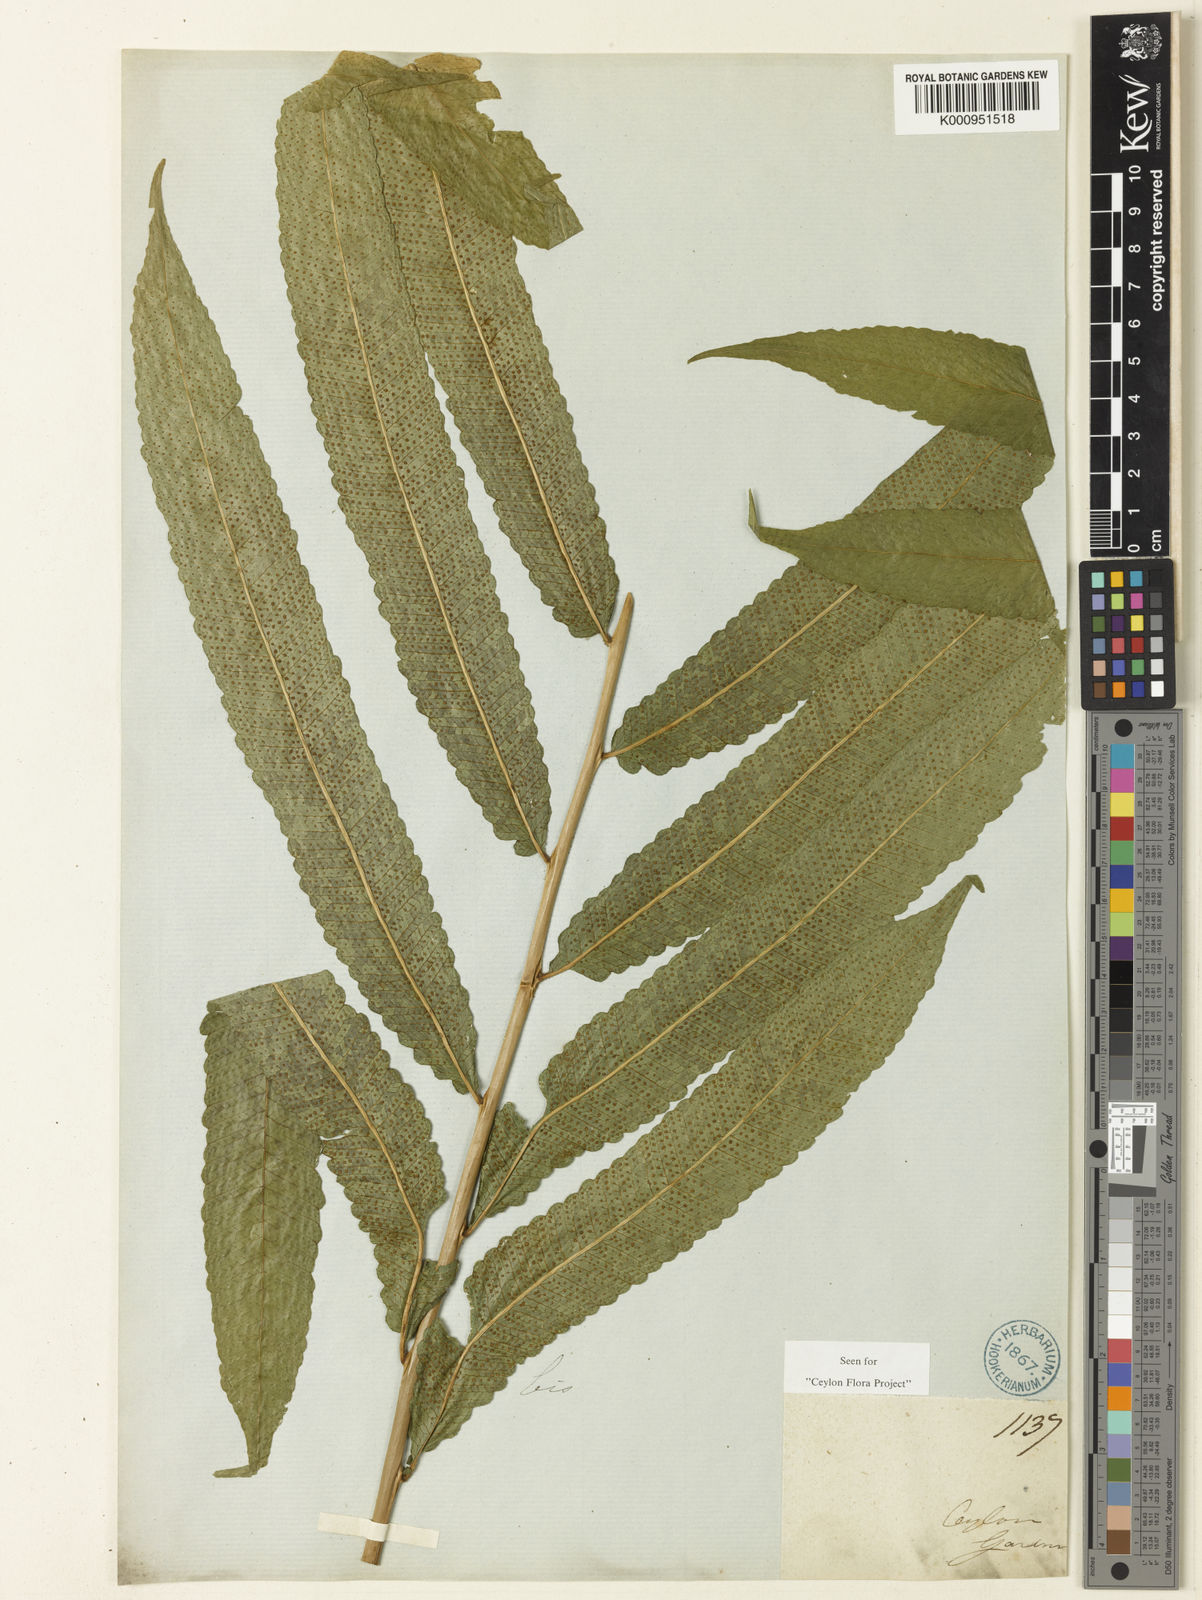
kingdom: Plantae
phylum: Tracheophyta
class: Polypodiopsida
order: Polypodiales
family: Thelypteridaceae
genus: Abacopteris
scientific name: Abacopteris gardneri
